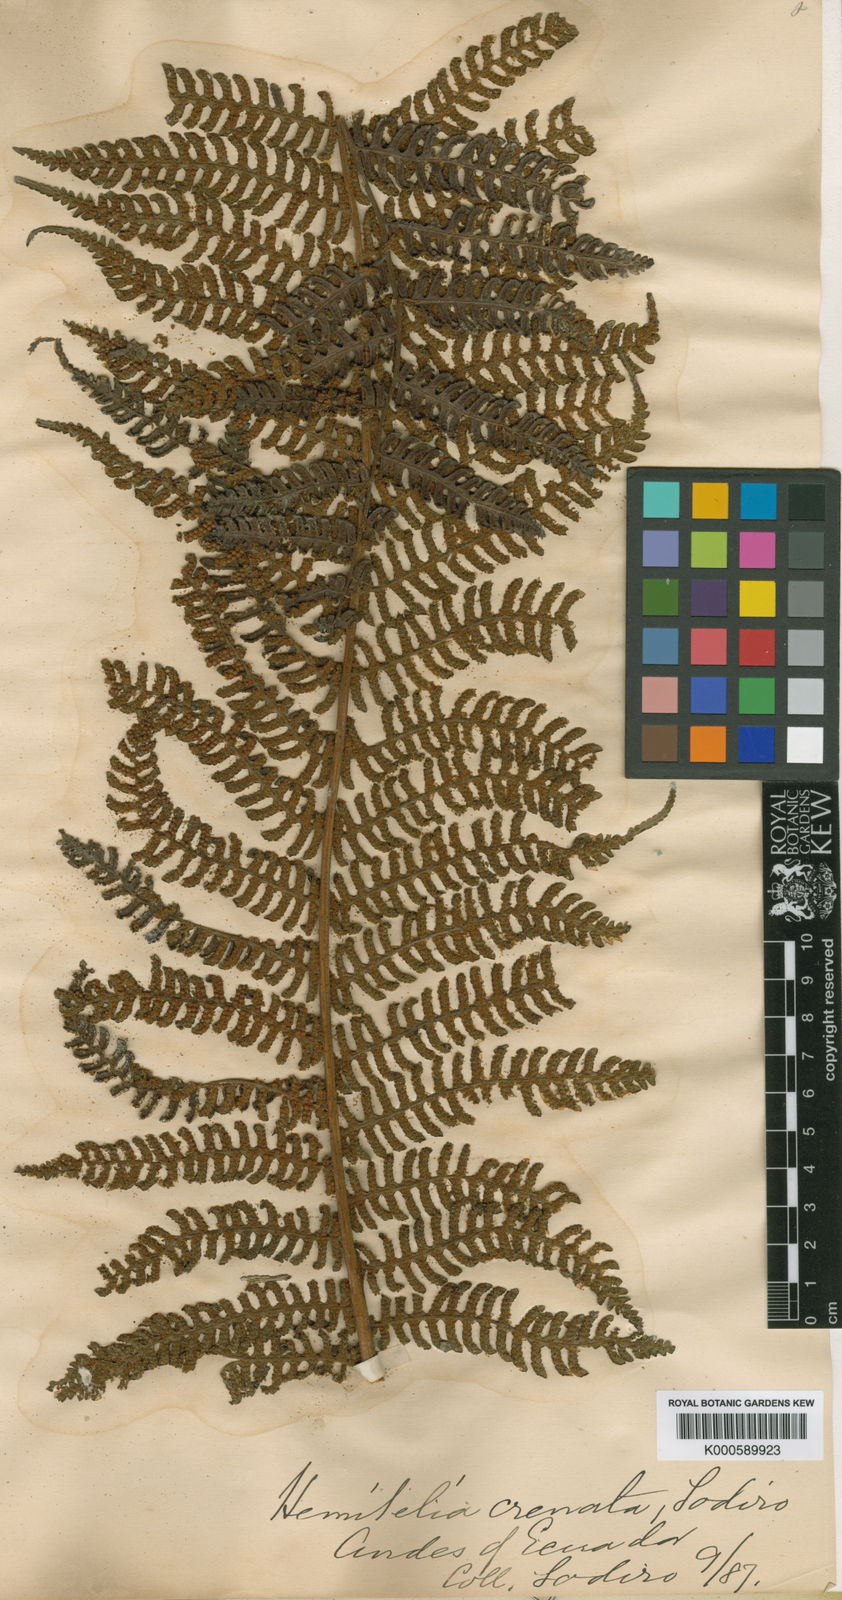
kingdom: Plantae
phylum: Tracheophyta
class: Polypodiopsida
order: Cyatheales
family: Cyatheaceae
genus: Cyathea
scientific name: Cyathea caracasana
